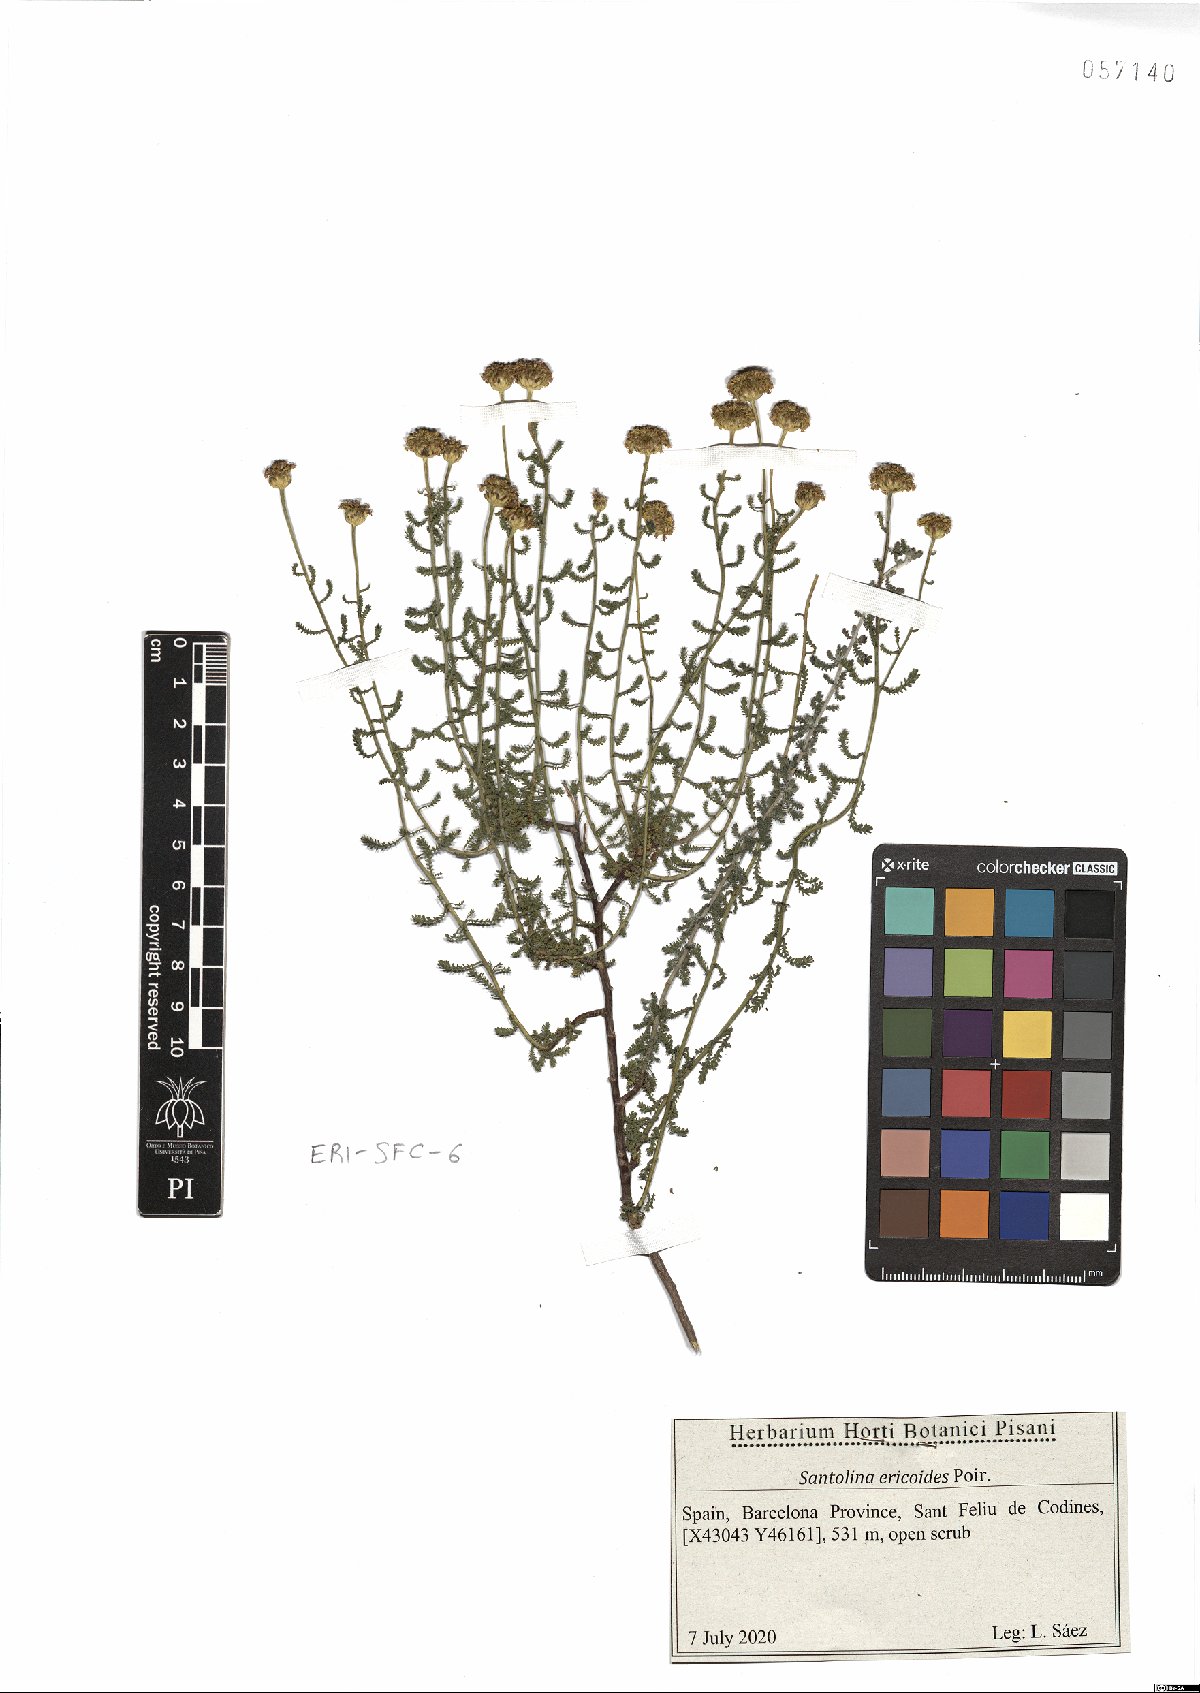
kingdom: Plantae
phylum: Tracheophyta
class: Magnoliopsida
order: Asterales
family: Asteraceae
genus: Santolina
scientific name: Santolina ericoides
